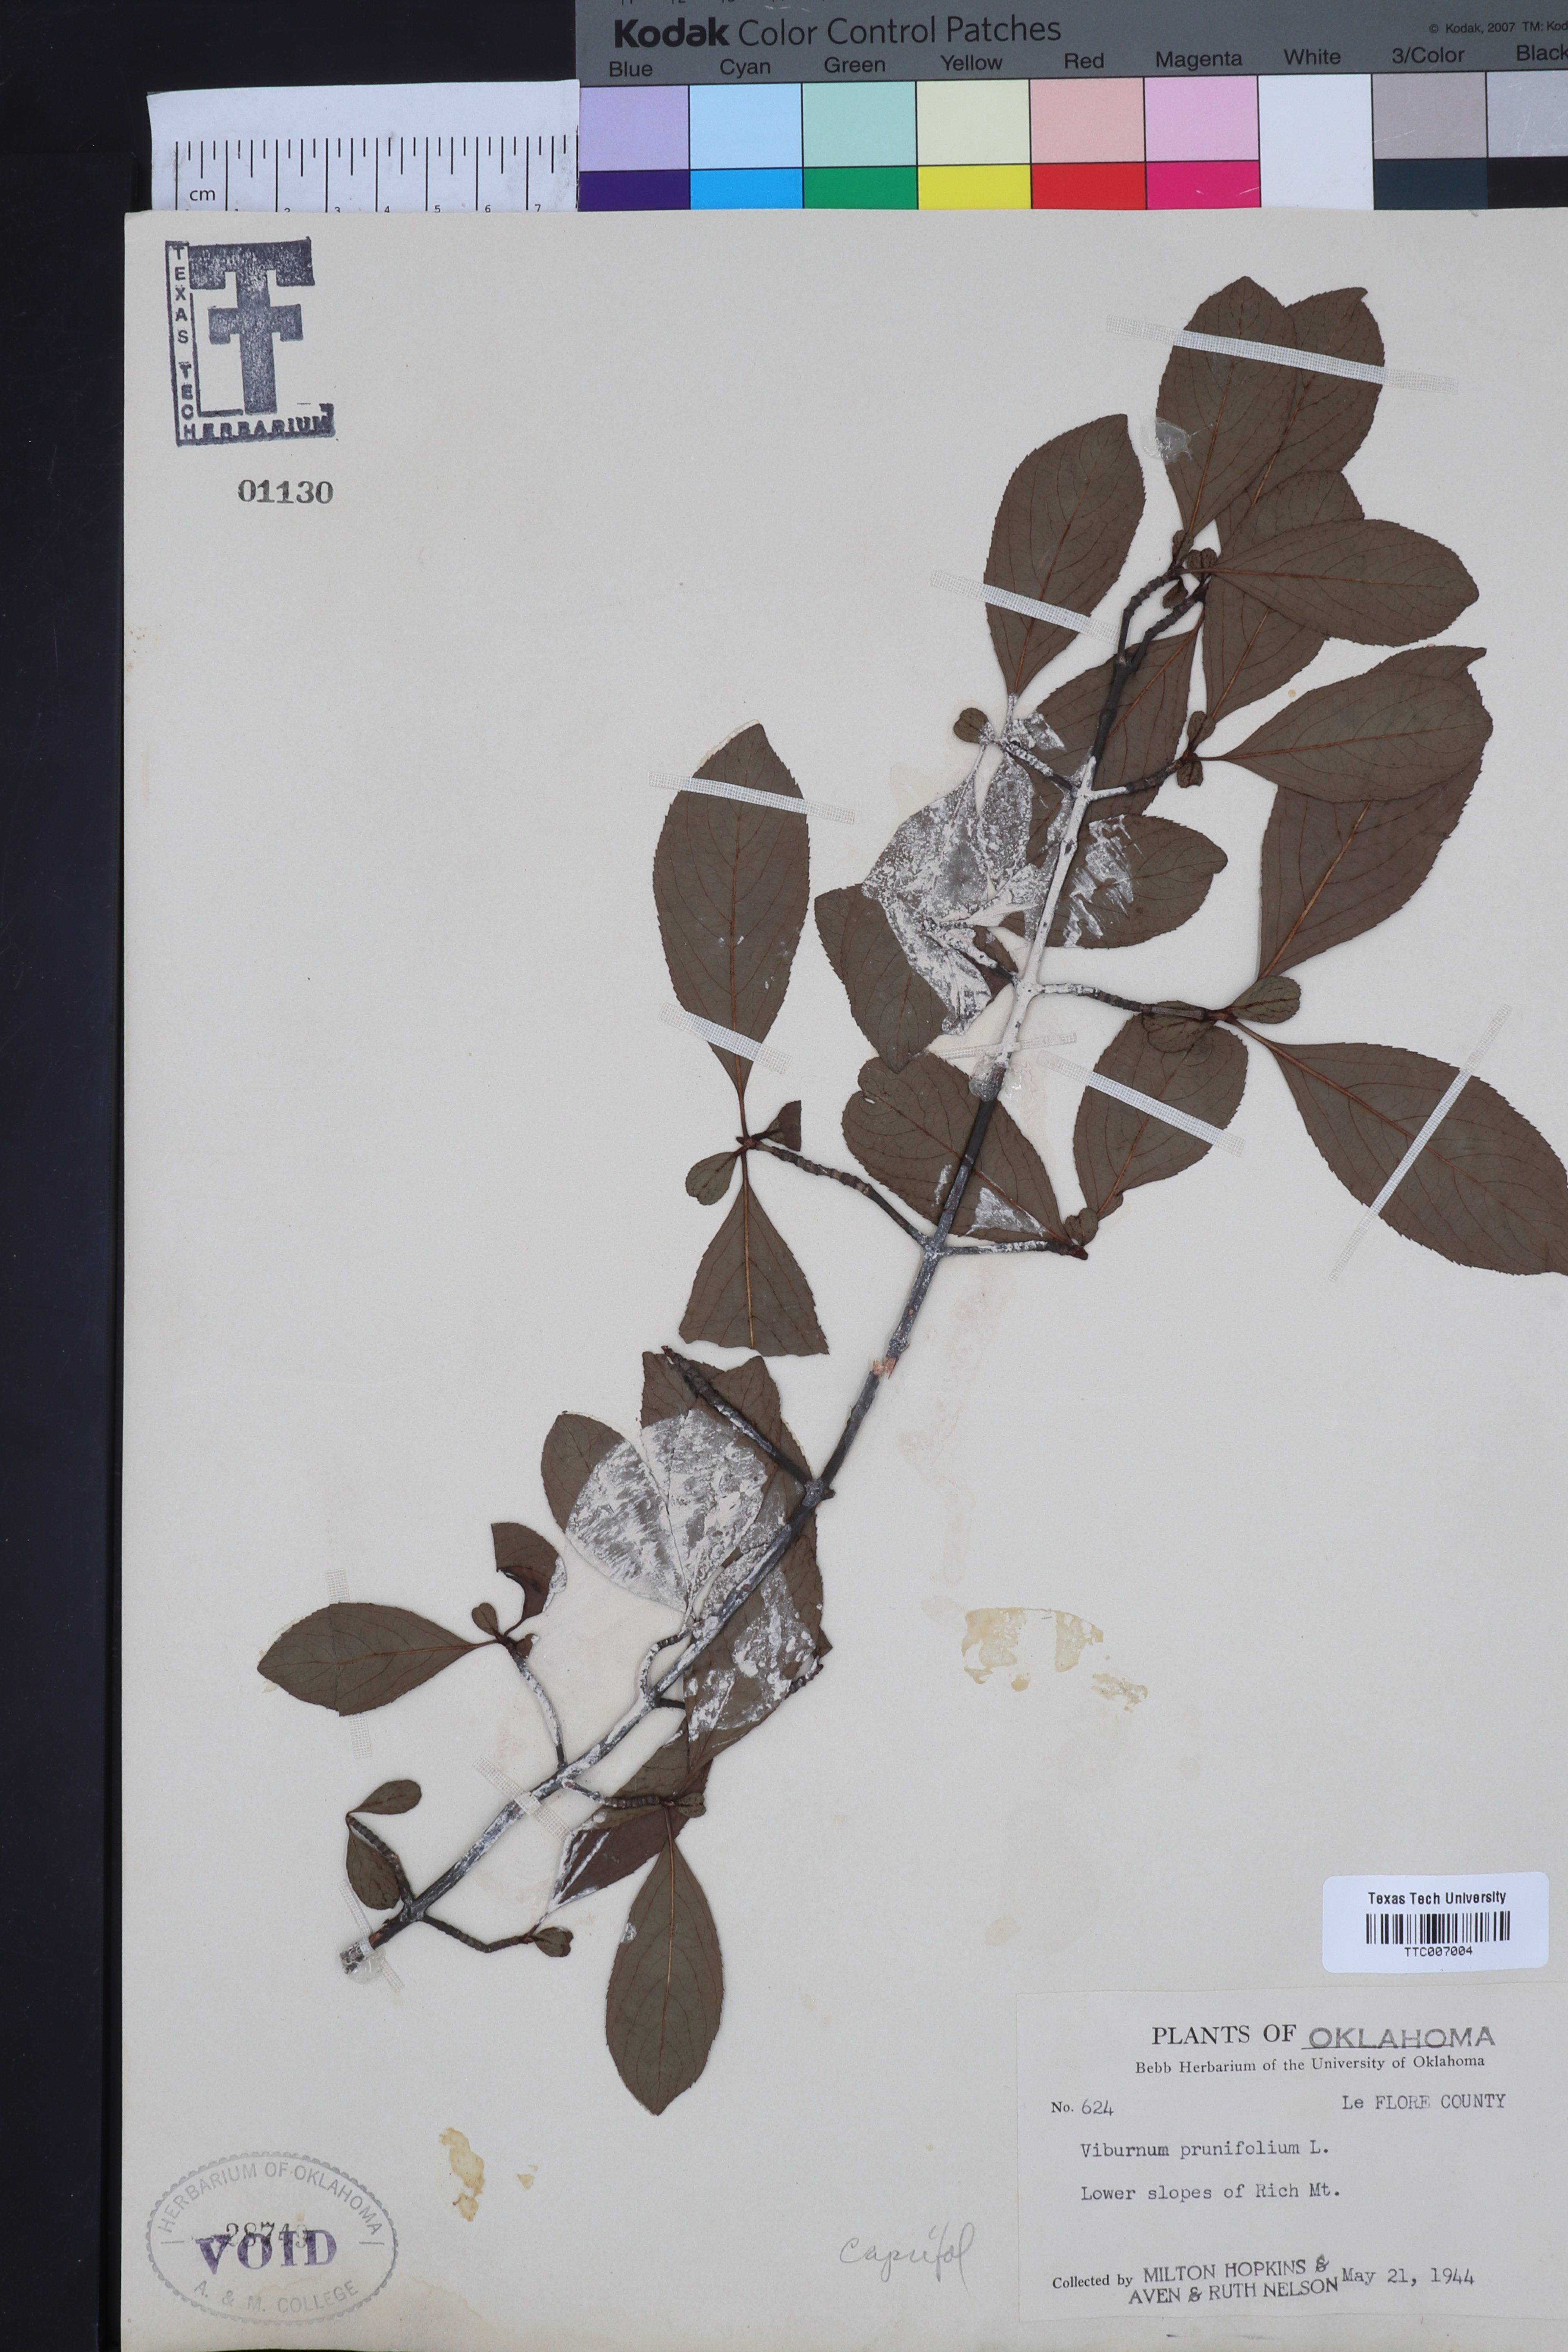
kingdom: Plantae
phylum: Tracheophyta
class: Magnoliopsida
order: Dipsacales
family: Viburnaceae
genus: Viburnum
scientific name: Viburnum prunifolium
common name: Black haw
